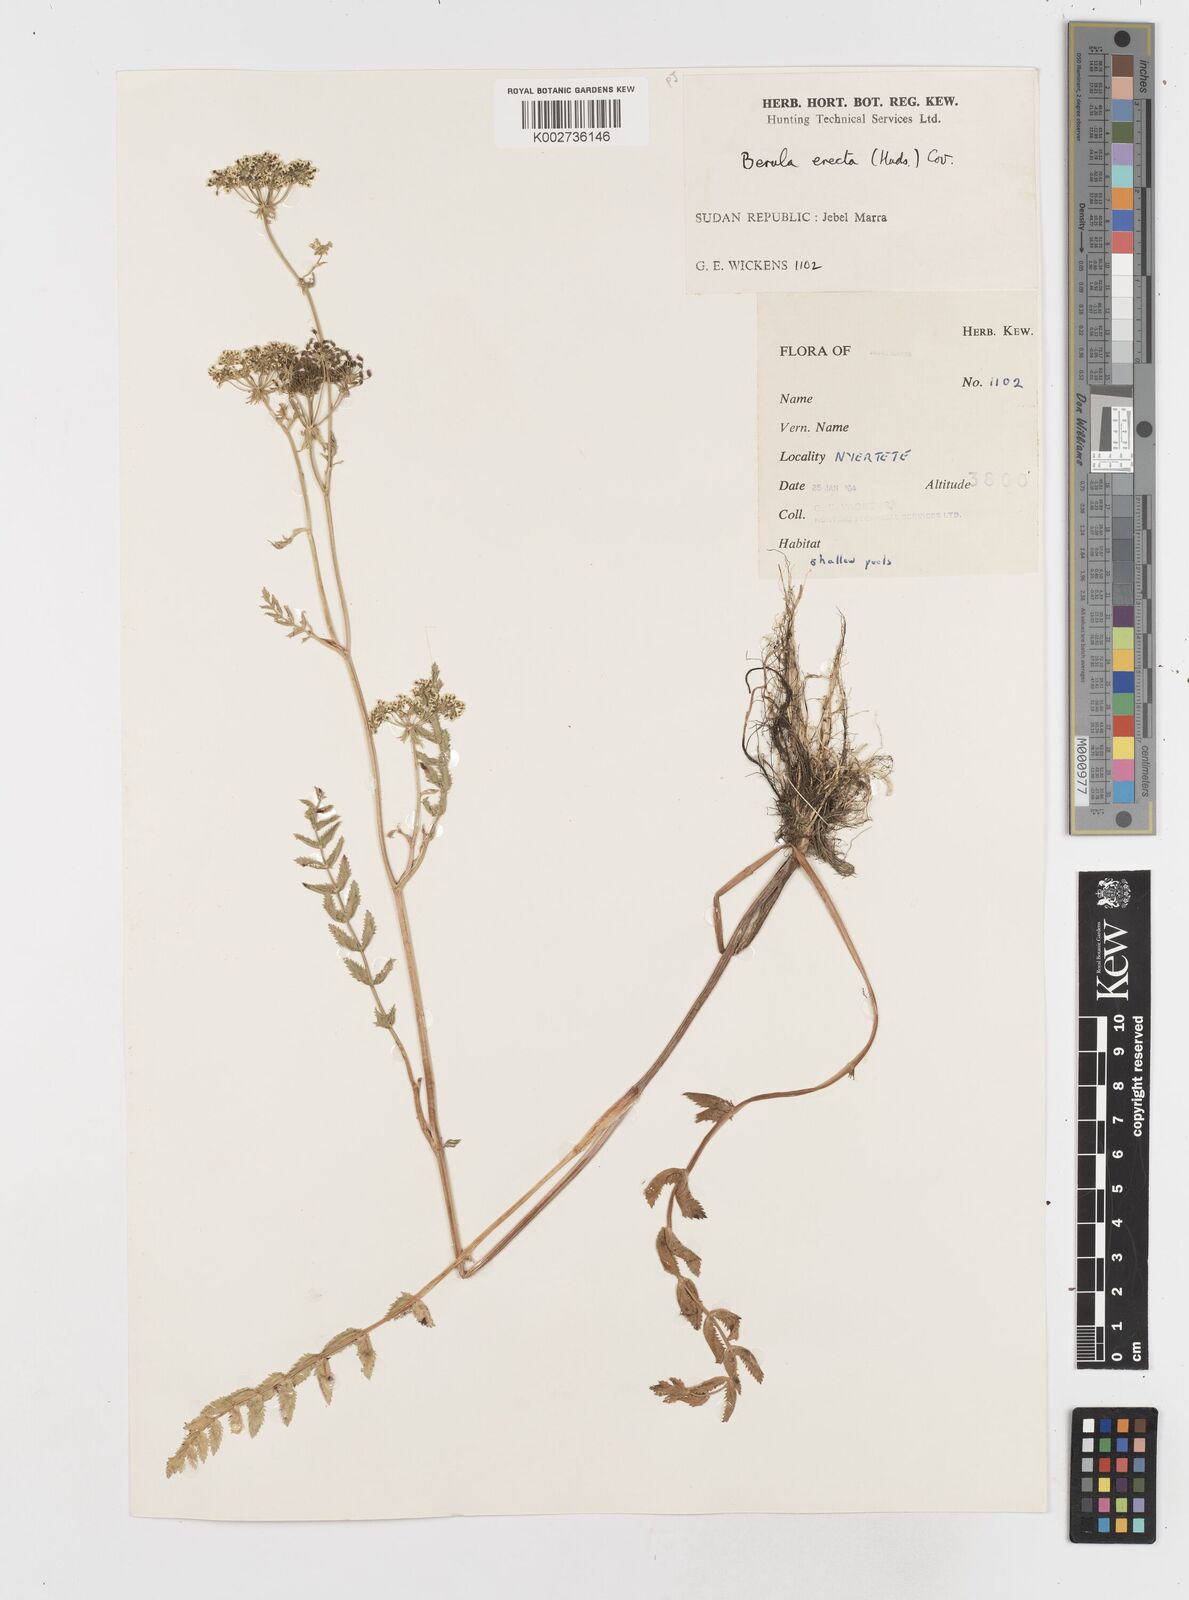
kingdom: Plantae
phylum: Tracheophyta
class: Magnoliopsida
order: Apiales
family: Apiaceae
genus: Berula
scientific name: Berula erecta
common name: Lesser water-parsnip
